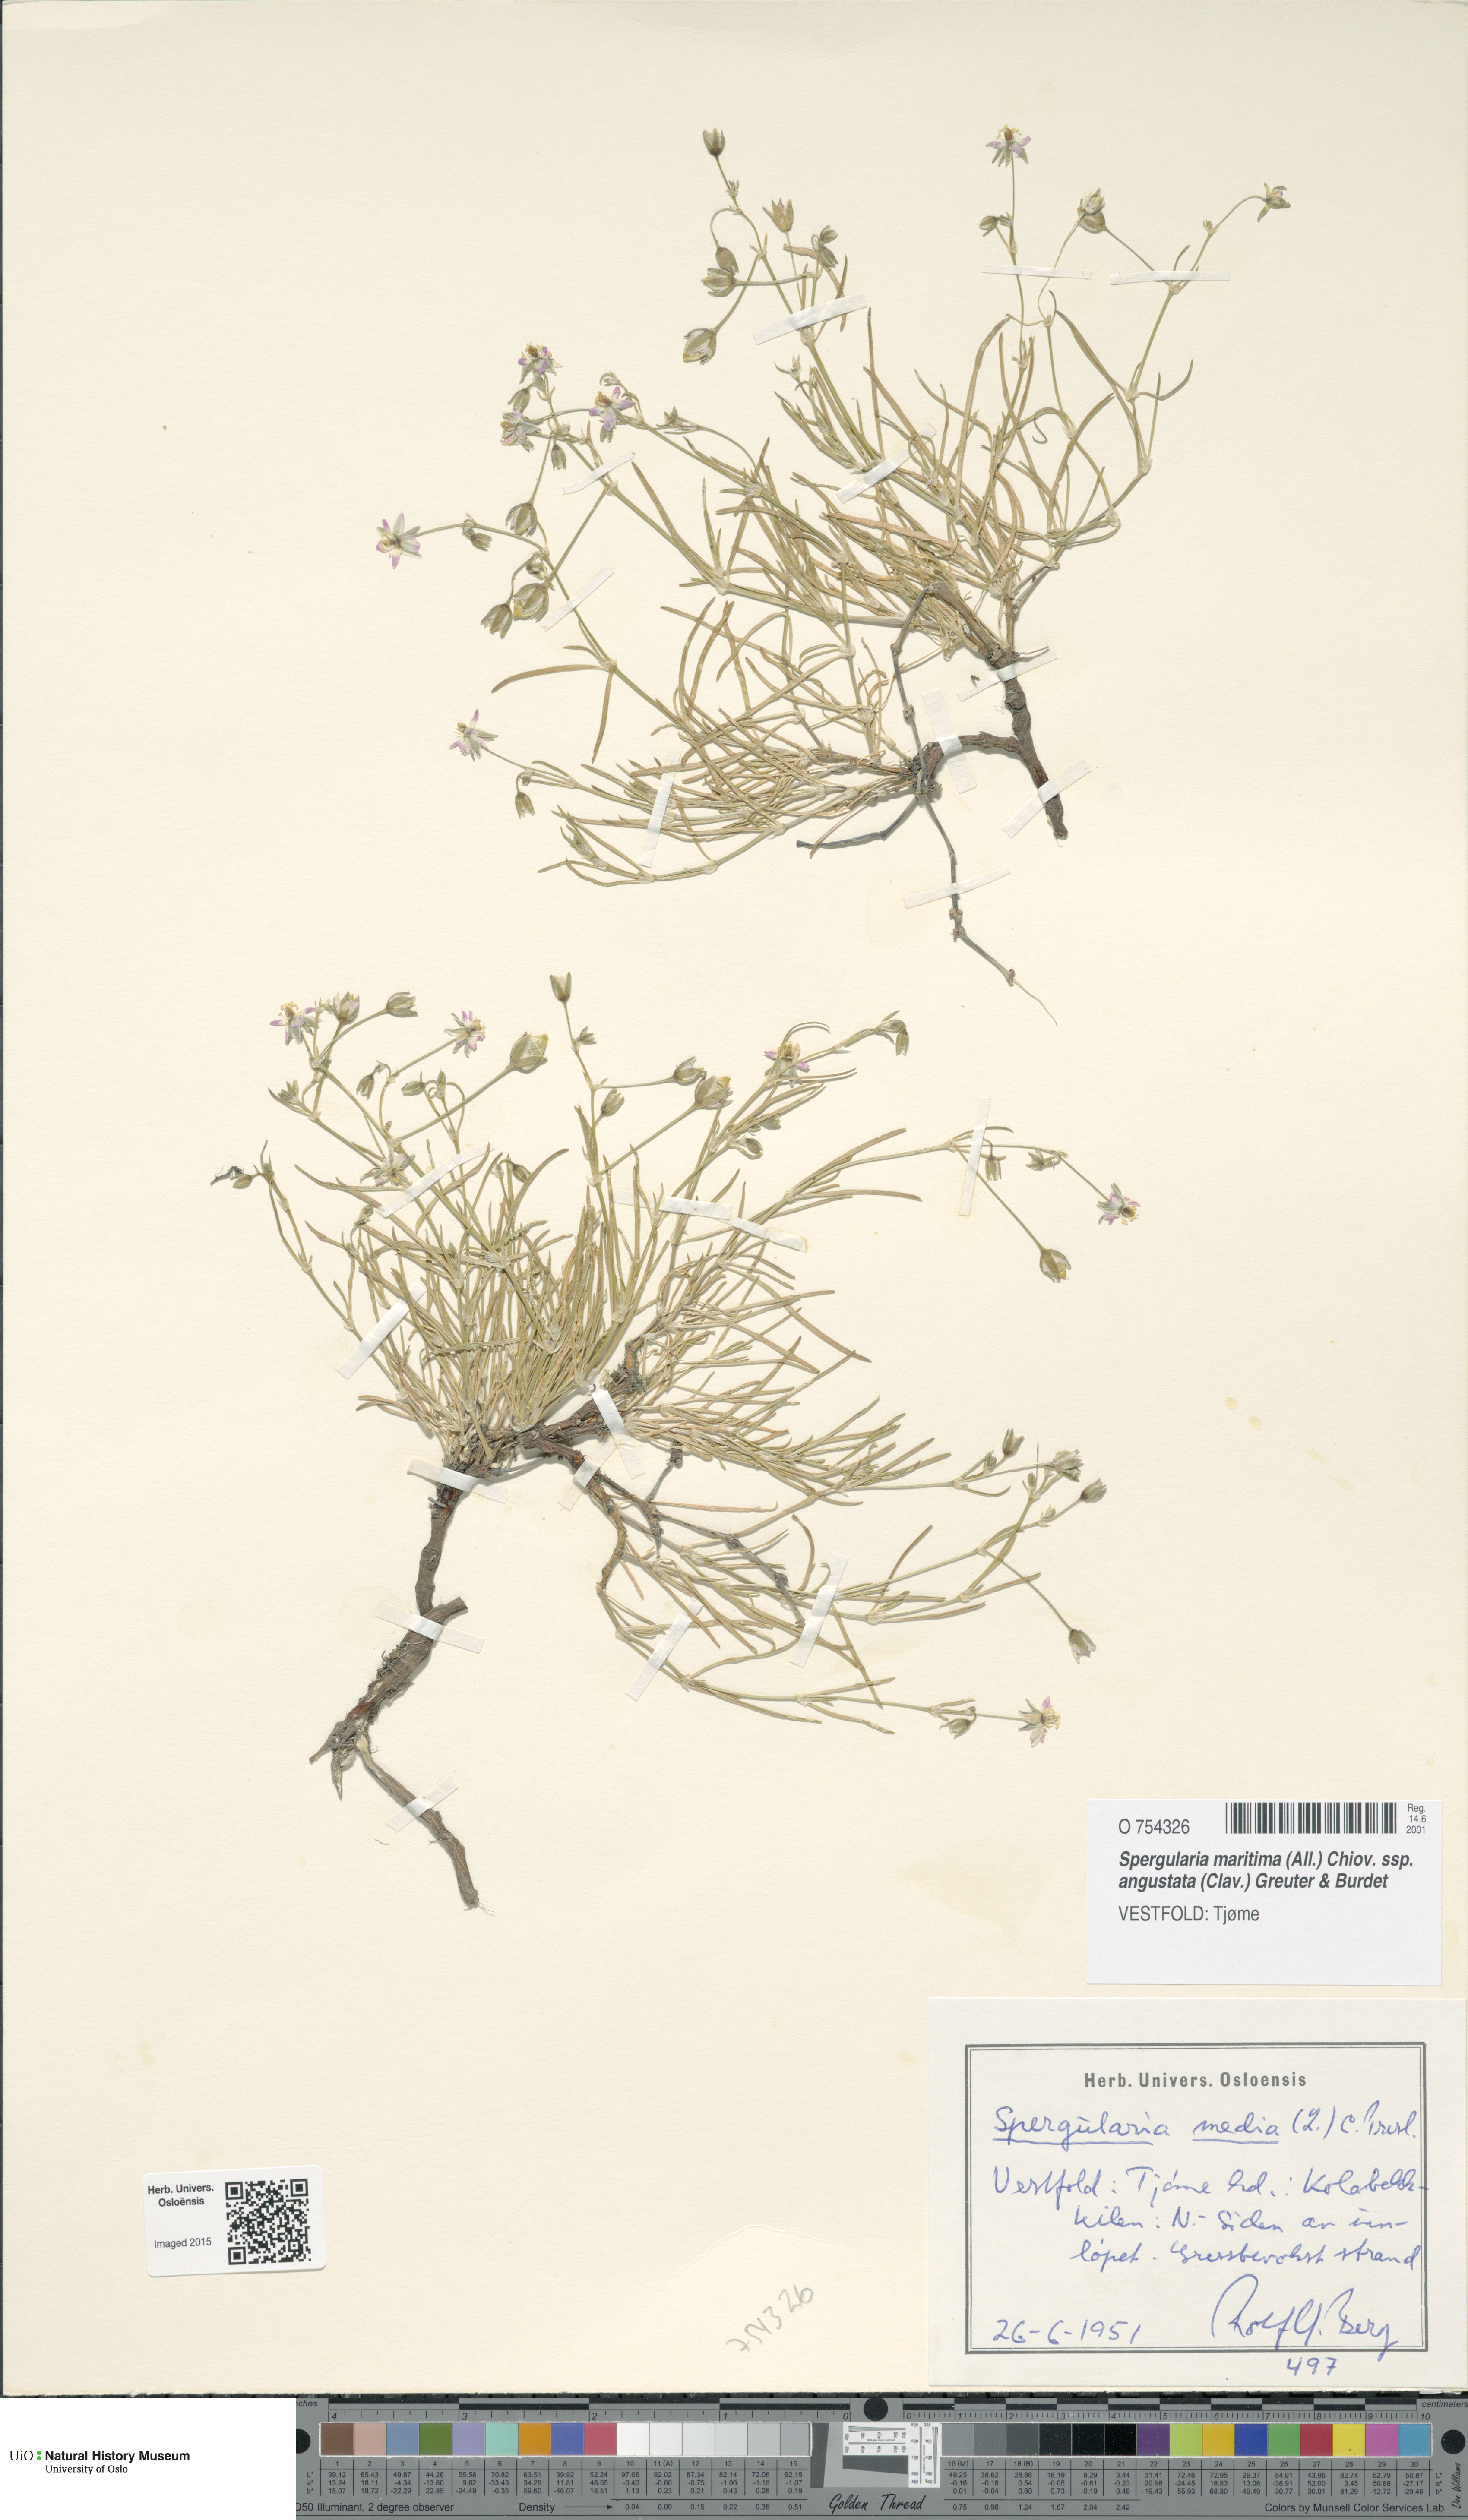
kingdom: Plantae
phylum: Tracheophyta
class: Magnoliopsida
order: Caryophyllales
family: Caryophyllaceae
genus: Spergularia
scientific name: Spergularia media
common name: Greater sea-spurrey
